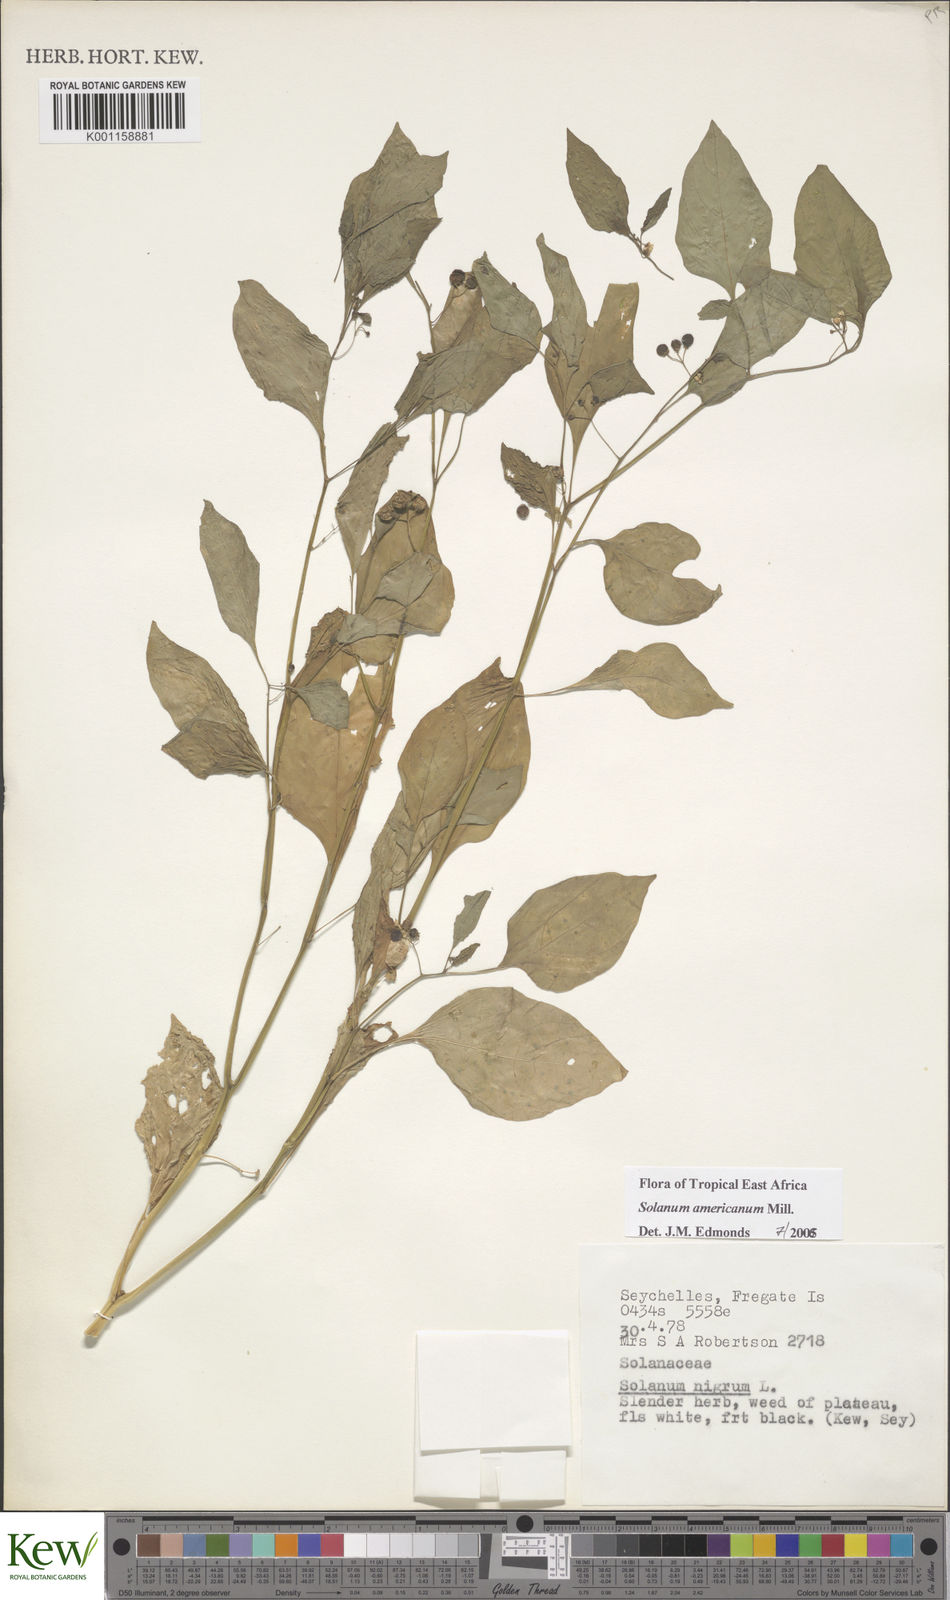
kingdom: Plantae
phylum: Tracheophyta
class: Magnoliopsida
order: Solanales
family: Solanaceae
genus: Solanum
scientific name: Solanum americanum
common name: American black nightshade
